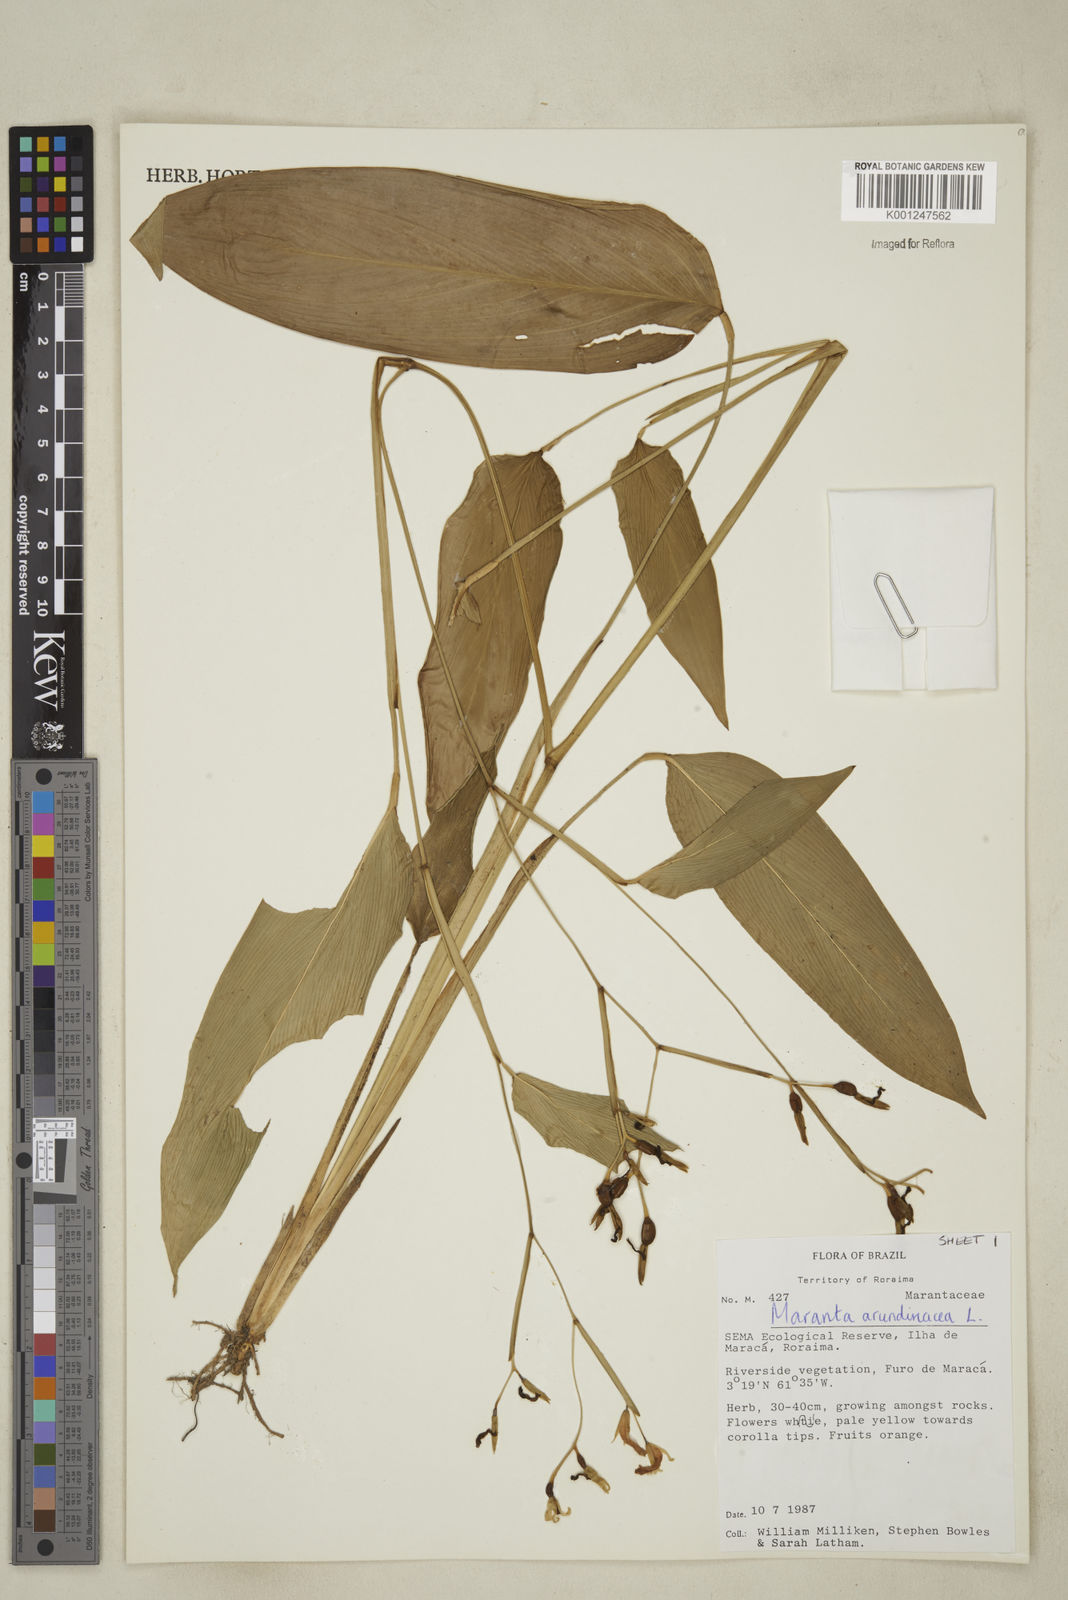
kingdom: Plantae
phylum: Tracheophyta
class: Liliopsida
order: Zingiberales
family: Marantaceae
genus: Maranta
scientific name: Maranta arundinacea
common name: Arrowroot
